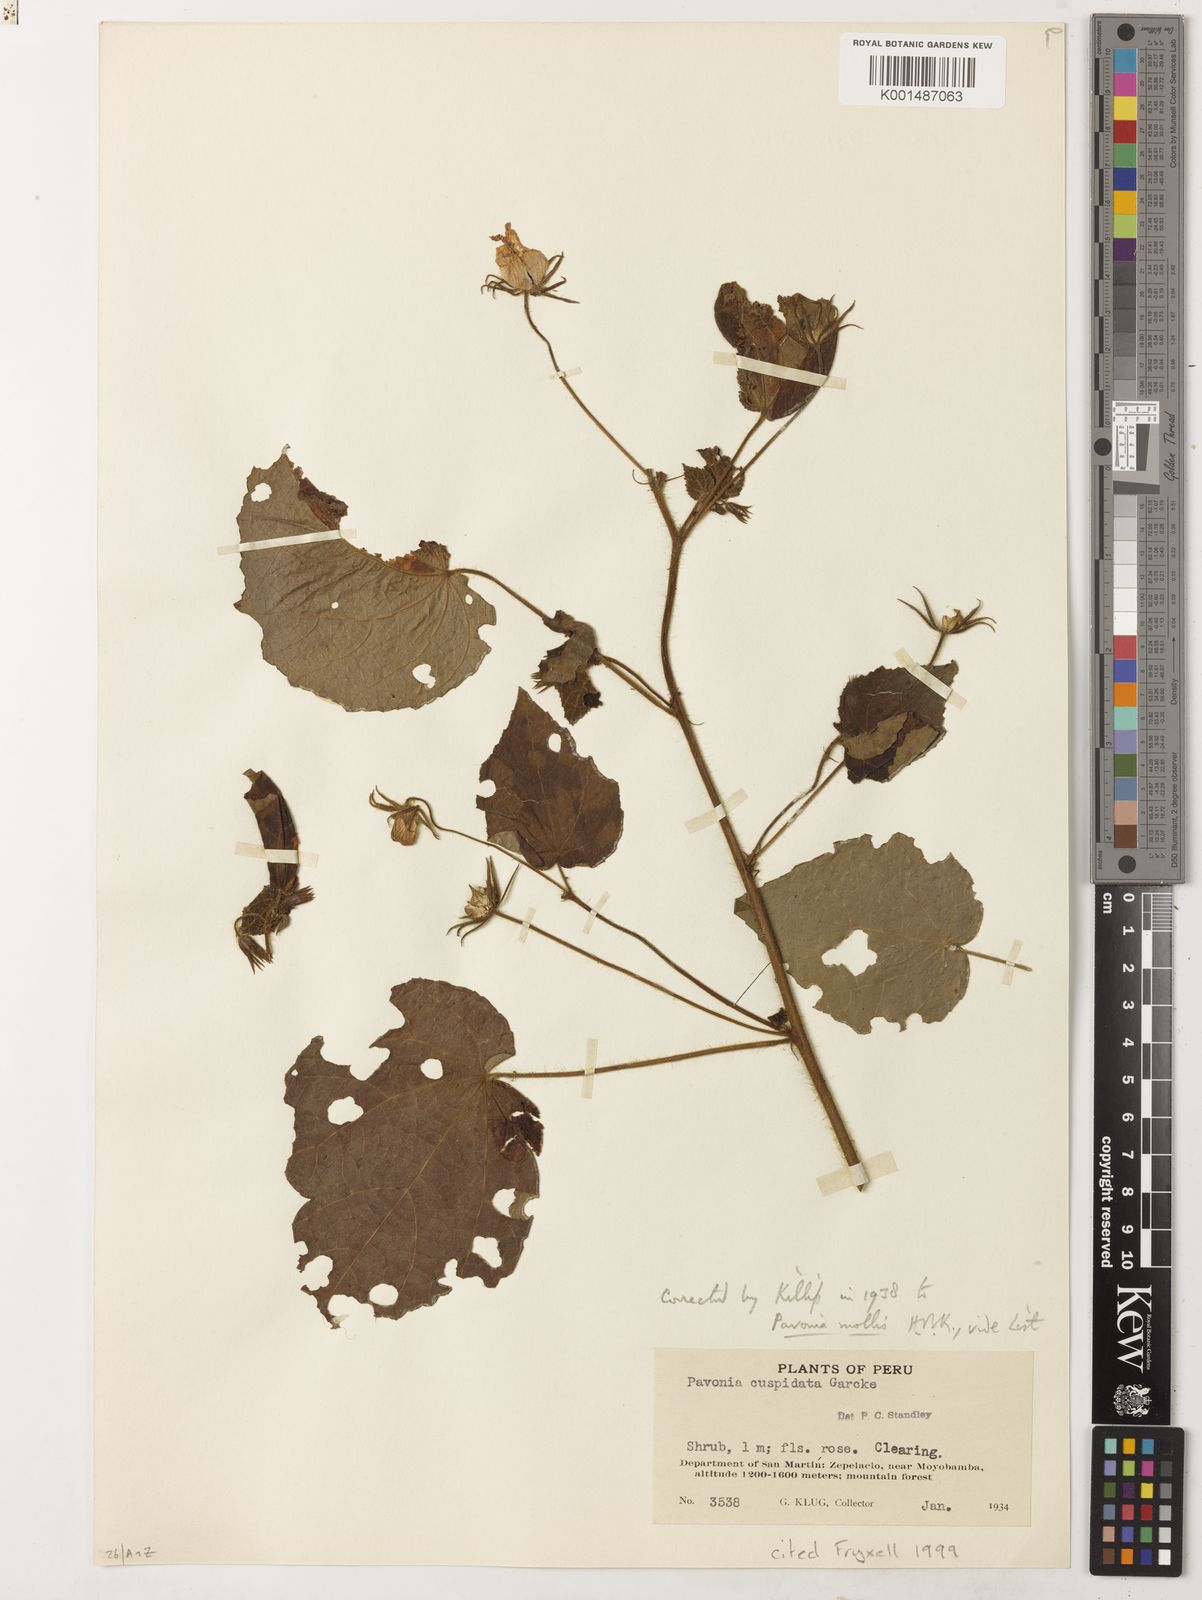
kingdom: Plantae
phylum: Tracheophyta
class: Magnoliopsida
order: Malvales
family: Malvaceae
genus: Pavonia
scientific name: Pavonia mollis
